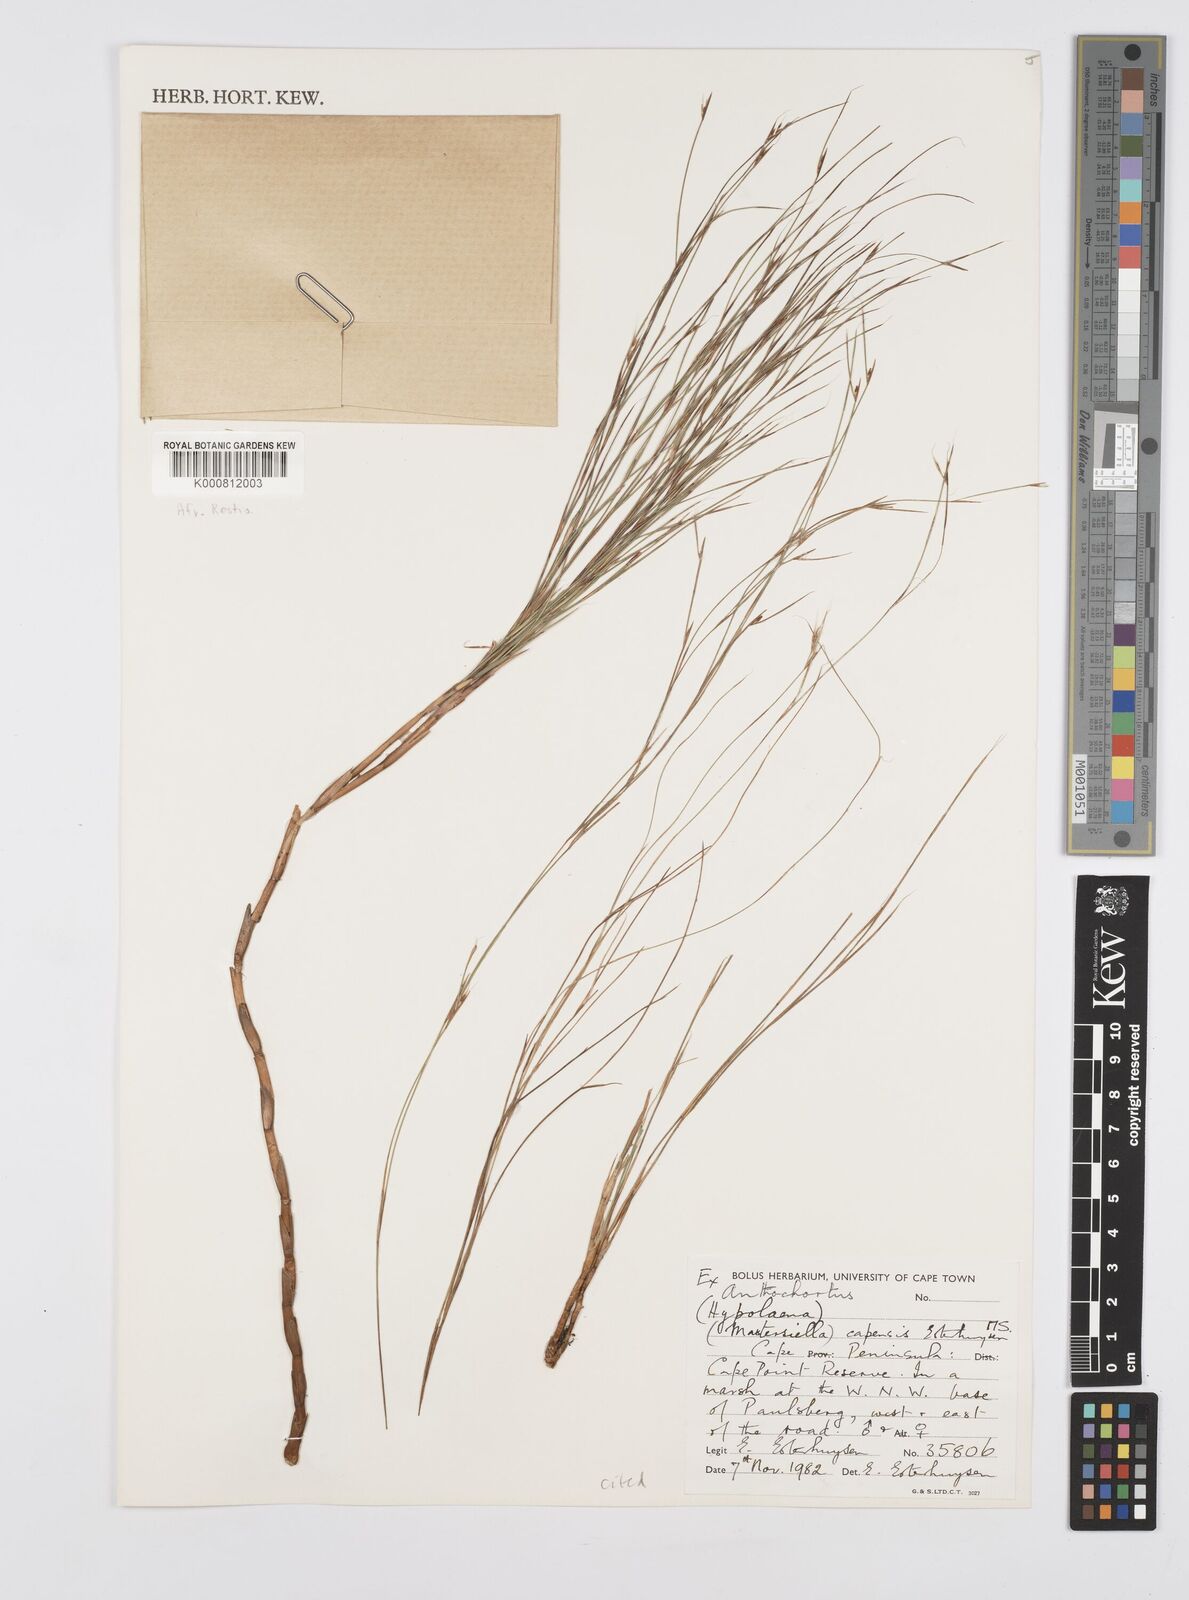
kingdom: Plantae
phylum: Tracheophyta
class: Liliopsida
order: Poales
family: Restionaceae
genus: Anthochortus
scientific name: Anthochortus capensis
